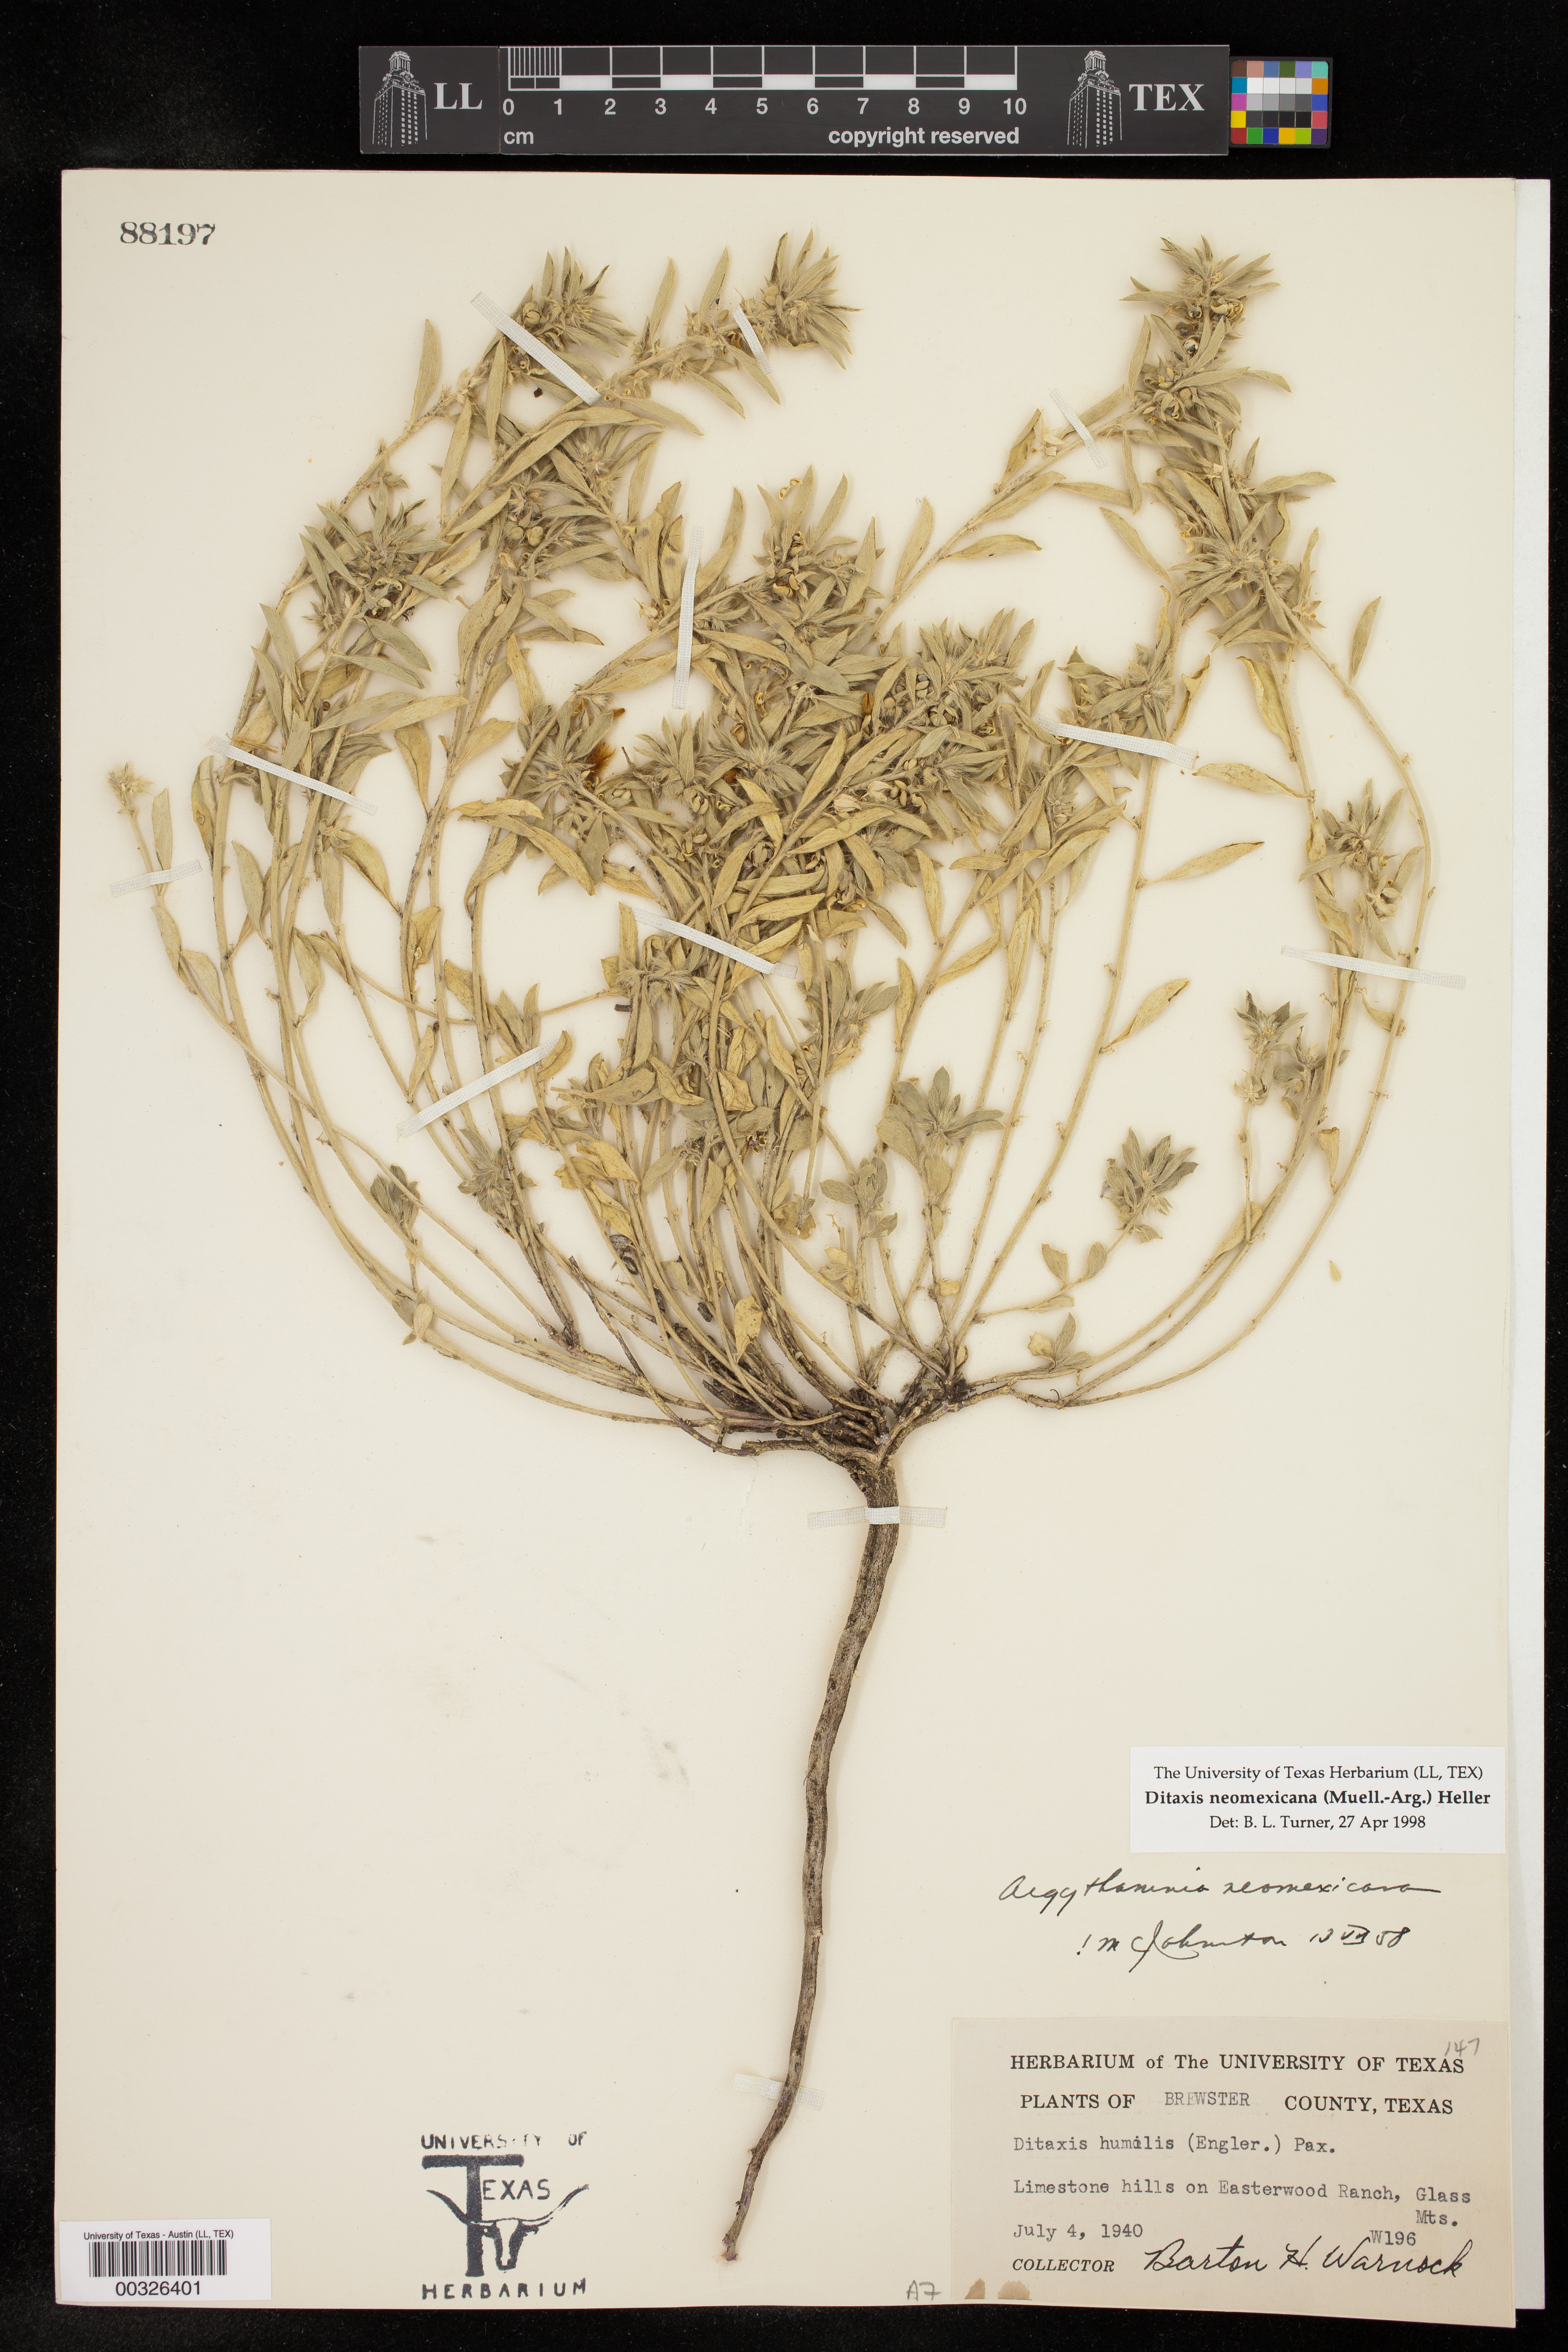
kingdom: Plantae
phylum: Tracheophyta
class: Magnoliopsida
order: Malpighiales
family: Euphorbiaceae
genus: Ditaxis
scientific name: Ditaxis serrata
